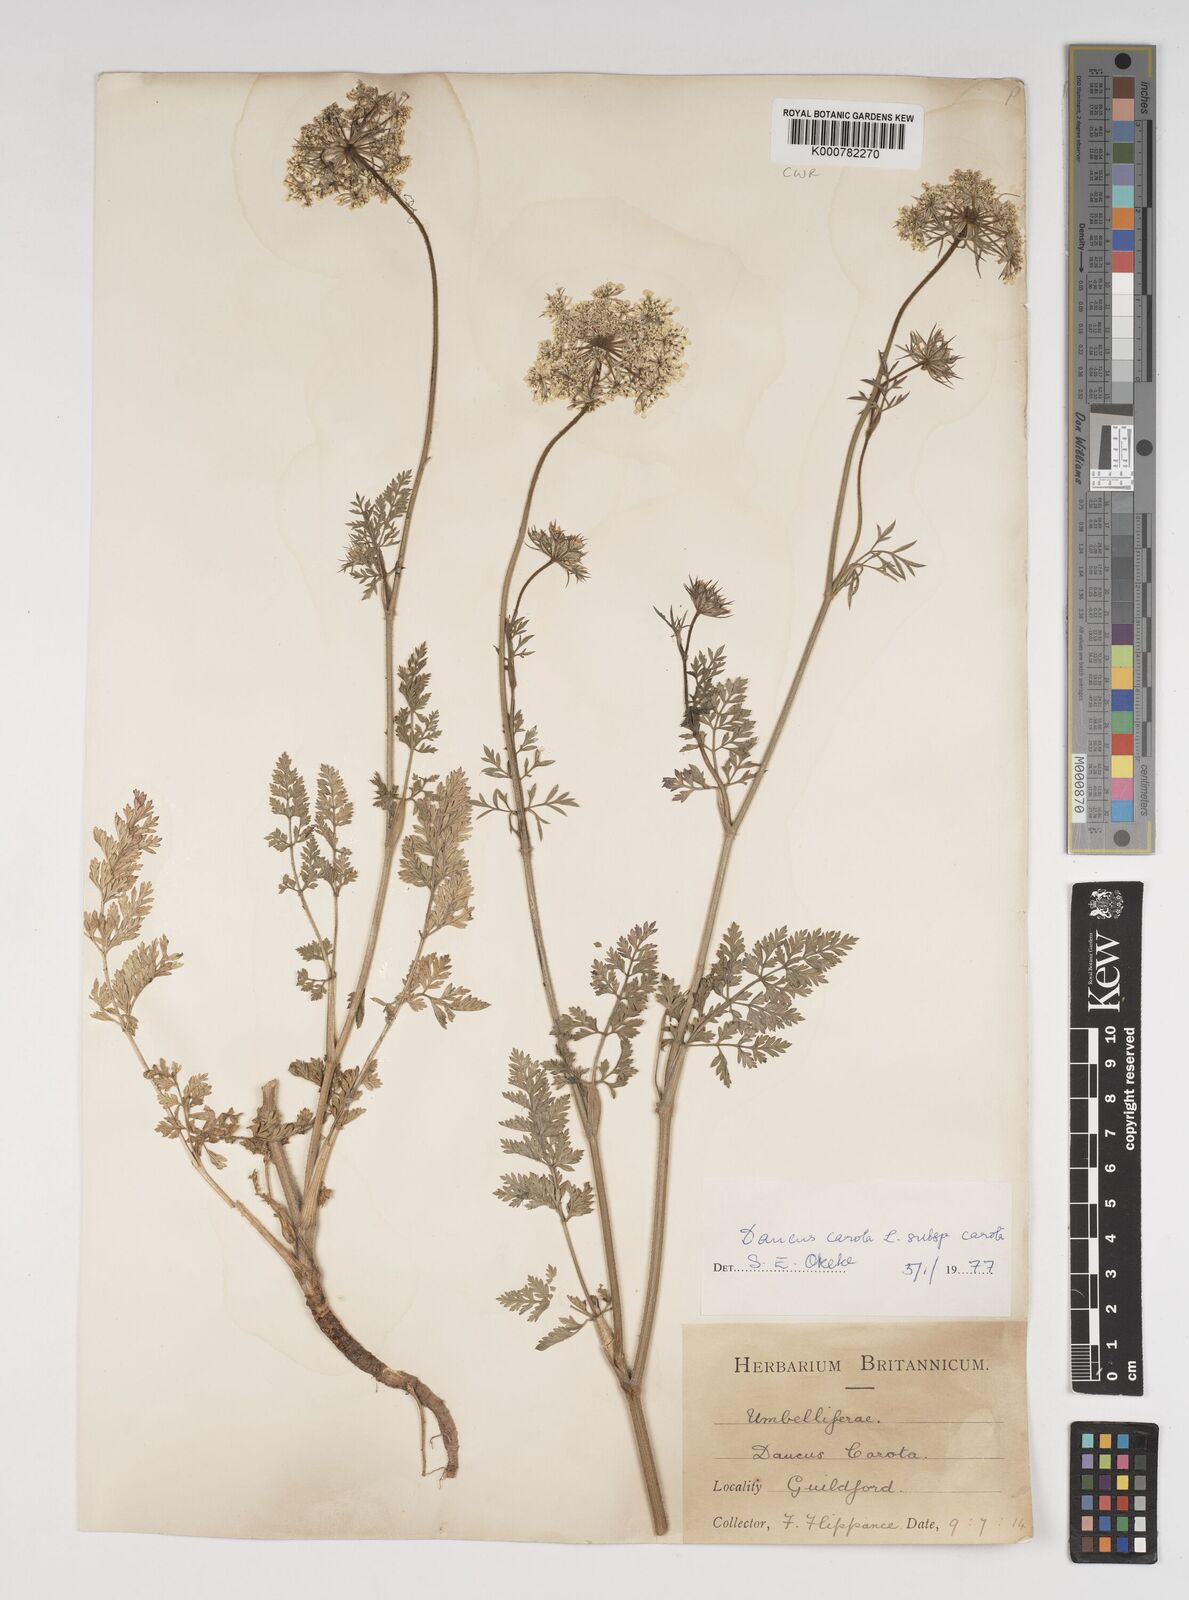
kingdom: Plantae
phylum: Tracheophyta
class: Magnoliopsida
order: Apiales
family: Apiaceae
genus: Daucus
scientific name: Daucus carota
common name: Wild carrot
